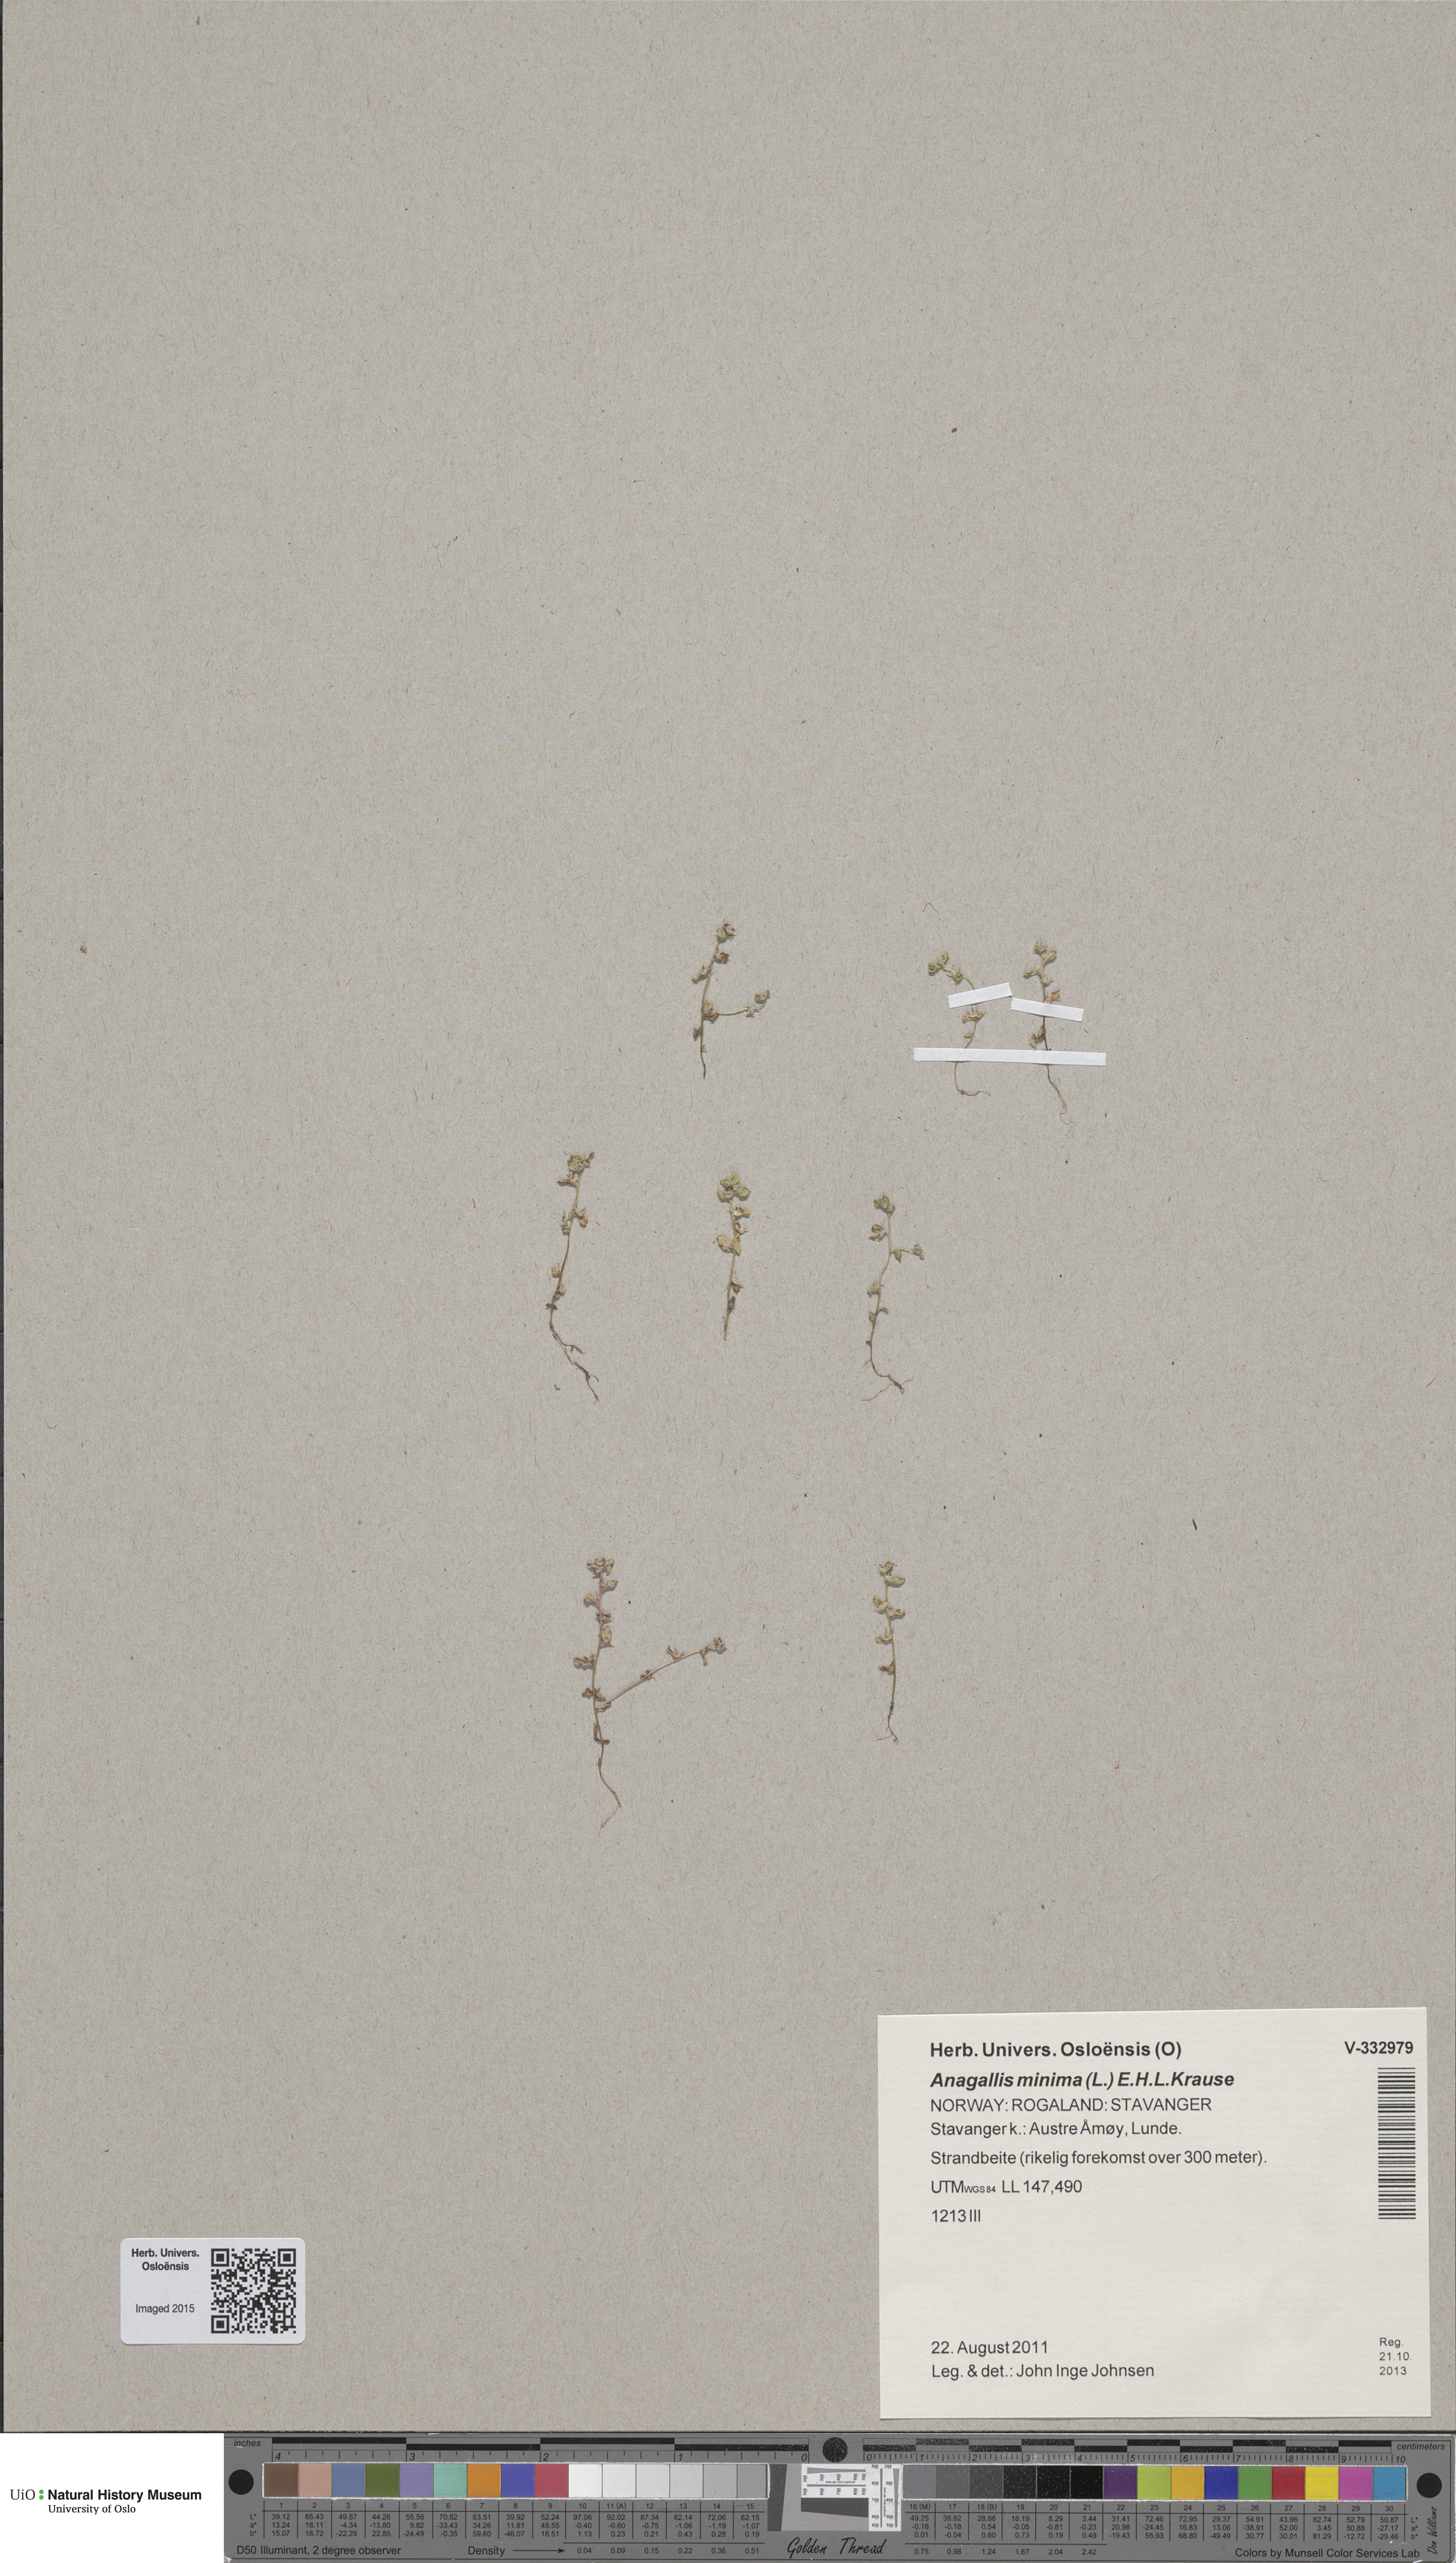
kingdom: Plantae
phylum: Tracheophyta
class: Magnoliopsida
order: Ericales
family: Primulaceae
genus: Lysimachia
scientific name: Lysimachia minima
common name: Chaffweed
